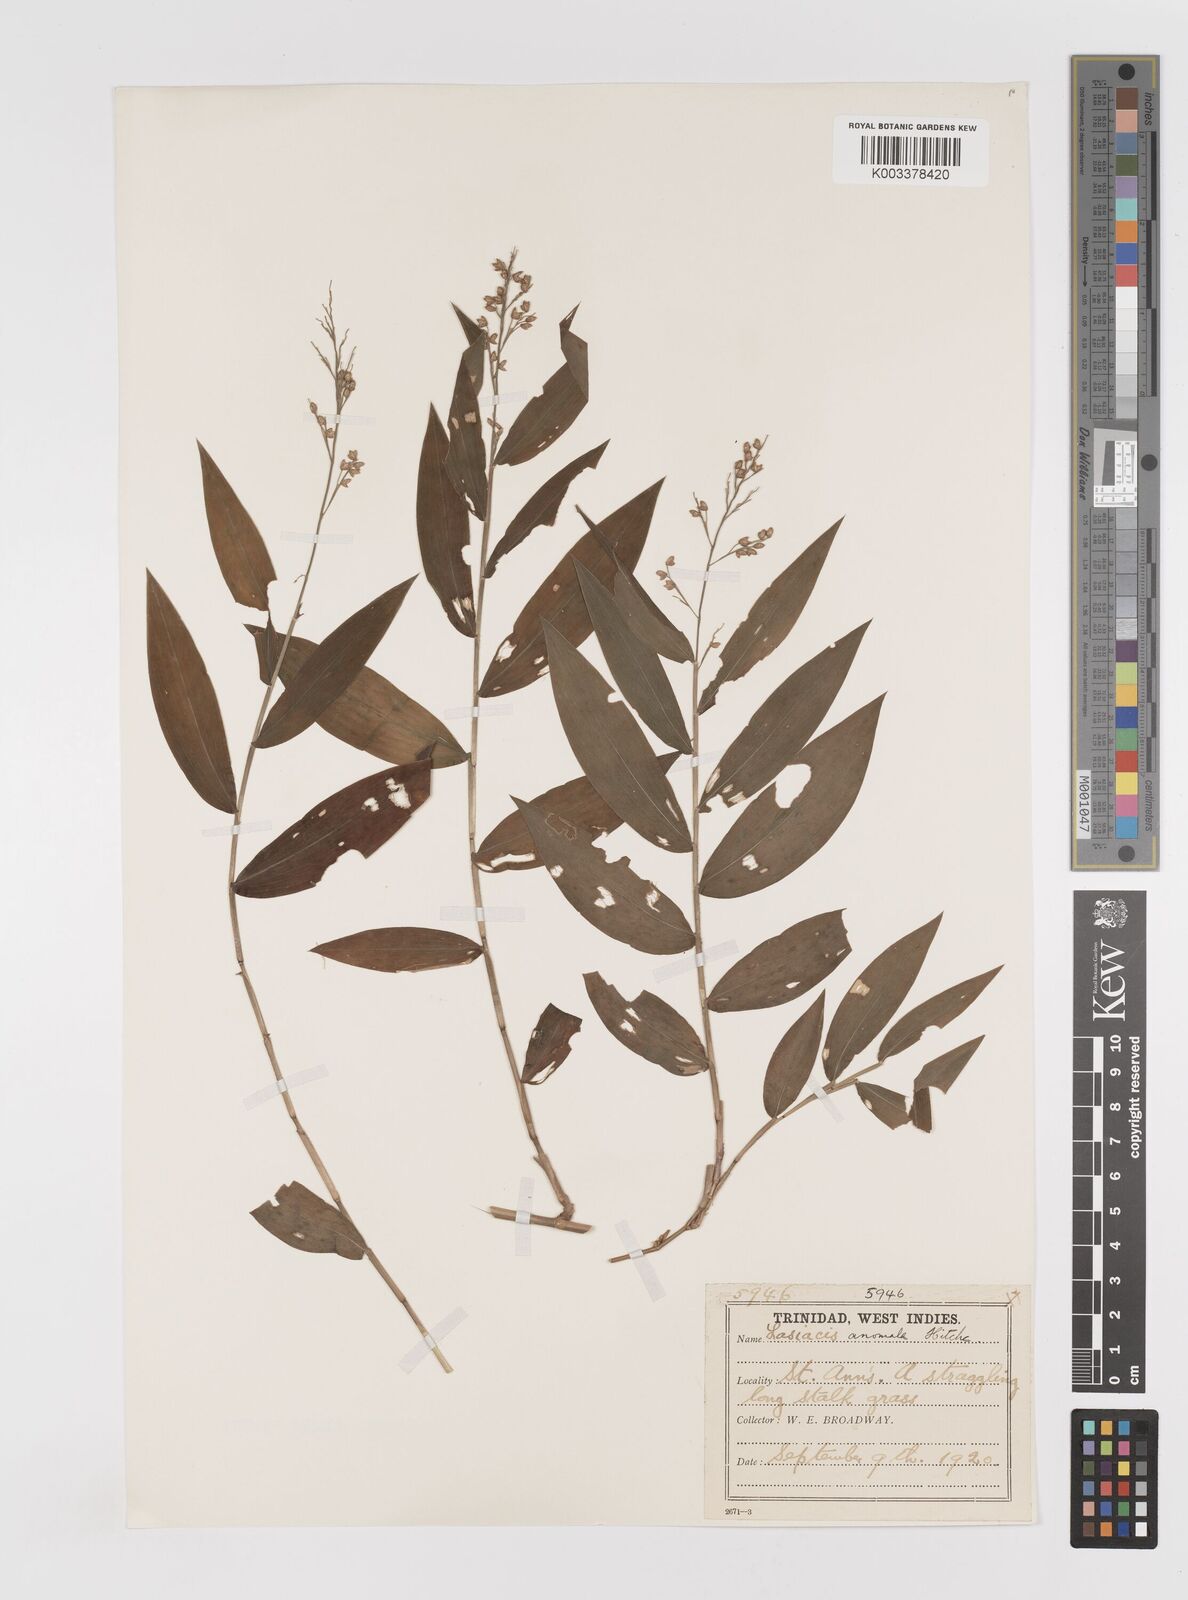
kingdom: Plantae
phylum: Tracheophyta
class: Liliopsida
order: Poales
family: Poaceae
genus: Lasiacis
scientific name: Lasiacis anomala
